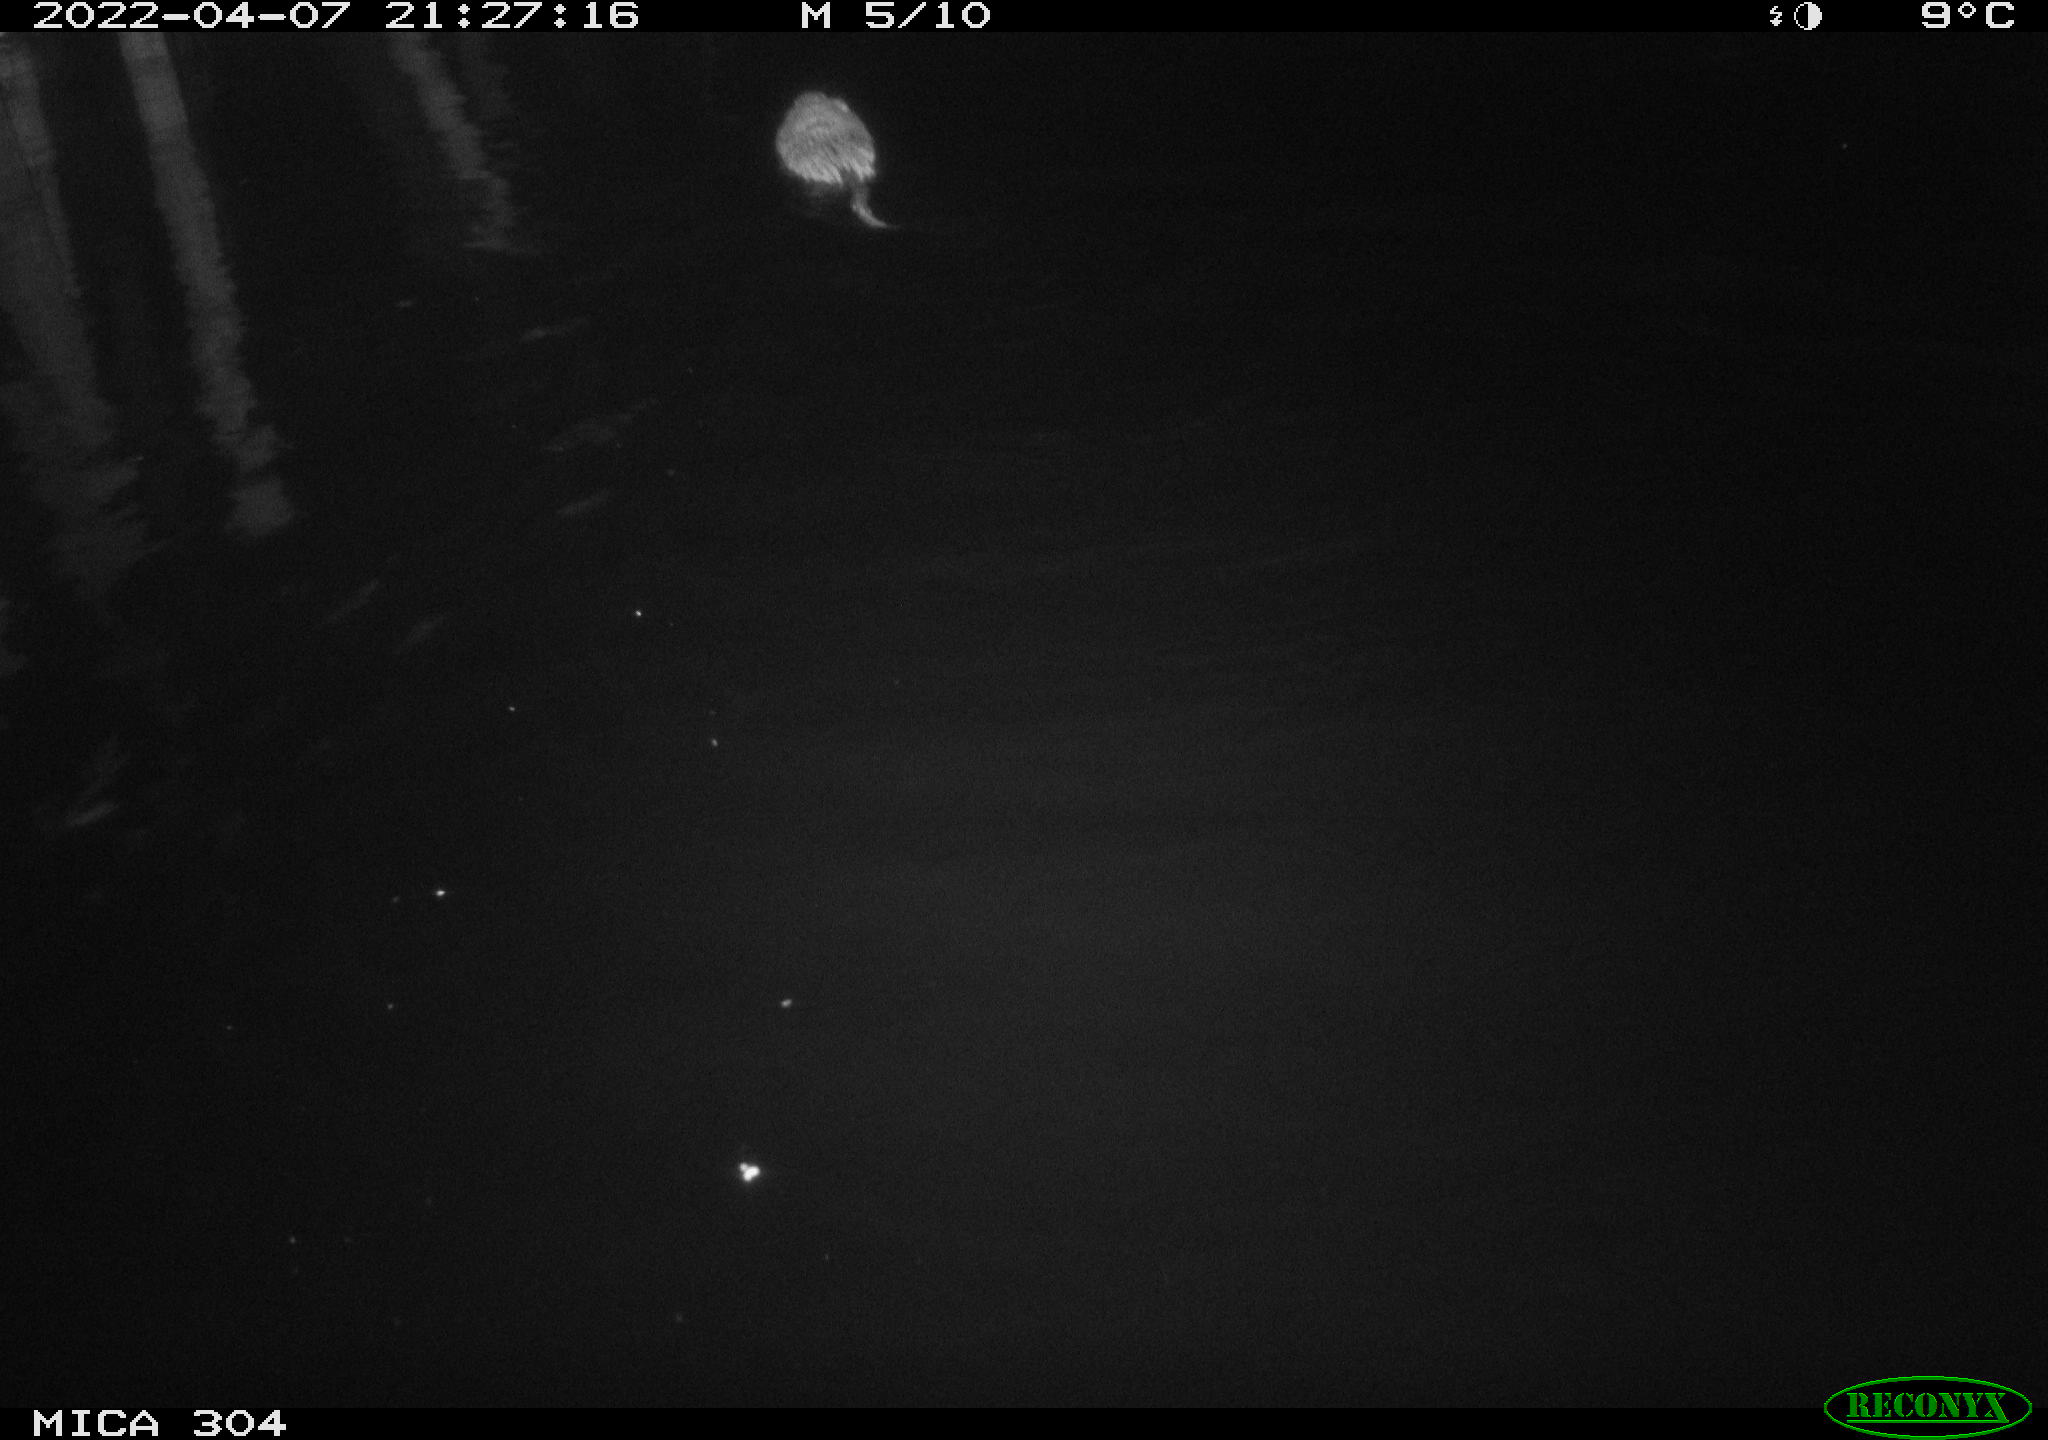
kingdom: Animalia
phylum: Chordata
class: Mammalia
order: Rodentia
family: Cricetidae
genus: Ondatra
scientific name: Ondatra zibethicus
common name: Muskrat
